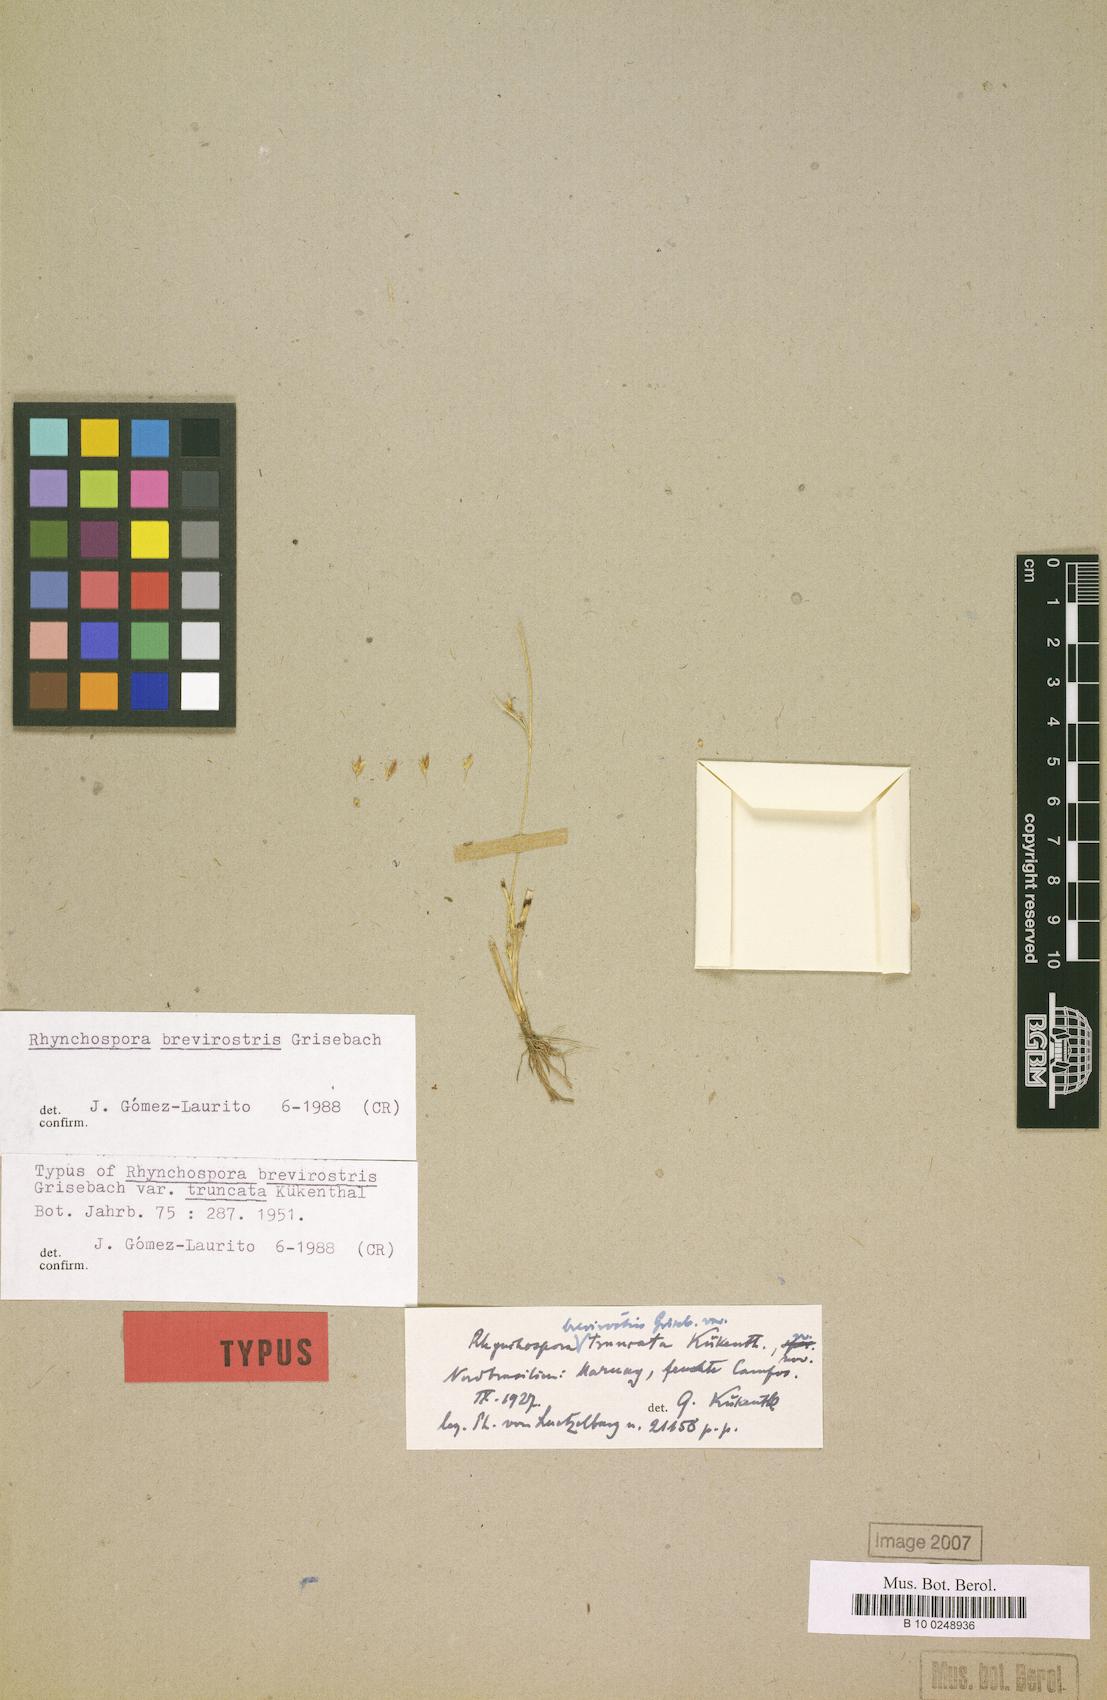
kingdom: Plantae
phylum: Tracheophyta
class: Liliopsida
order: Poales
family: Cyperaceae
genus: Rhynchospora
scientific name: Rhynchospora brevirostris
